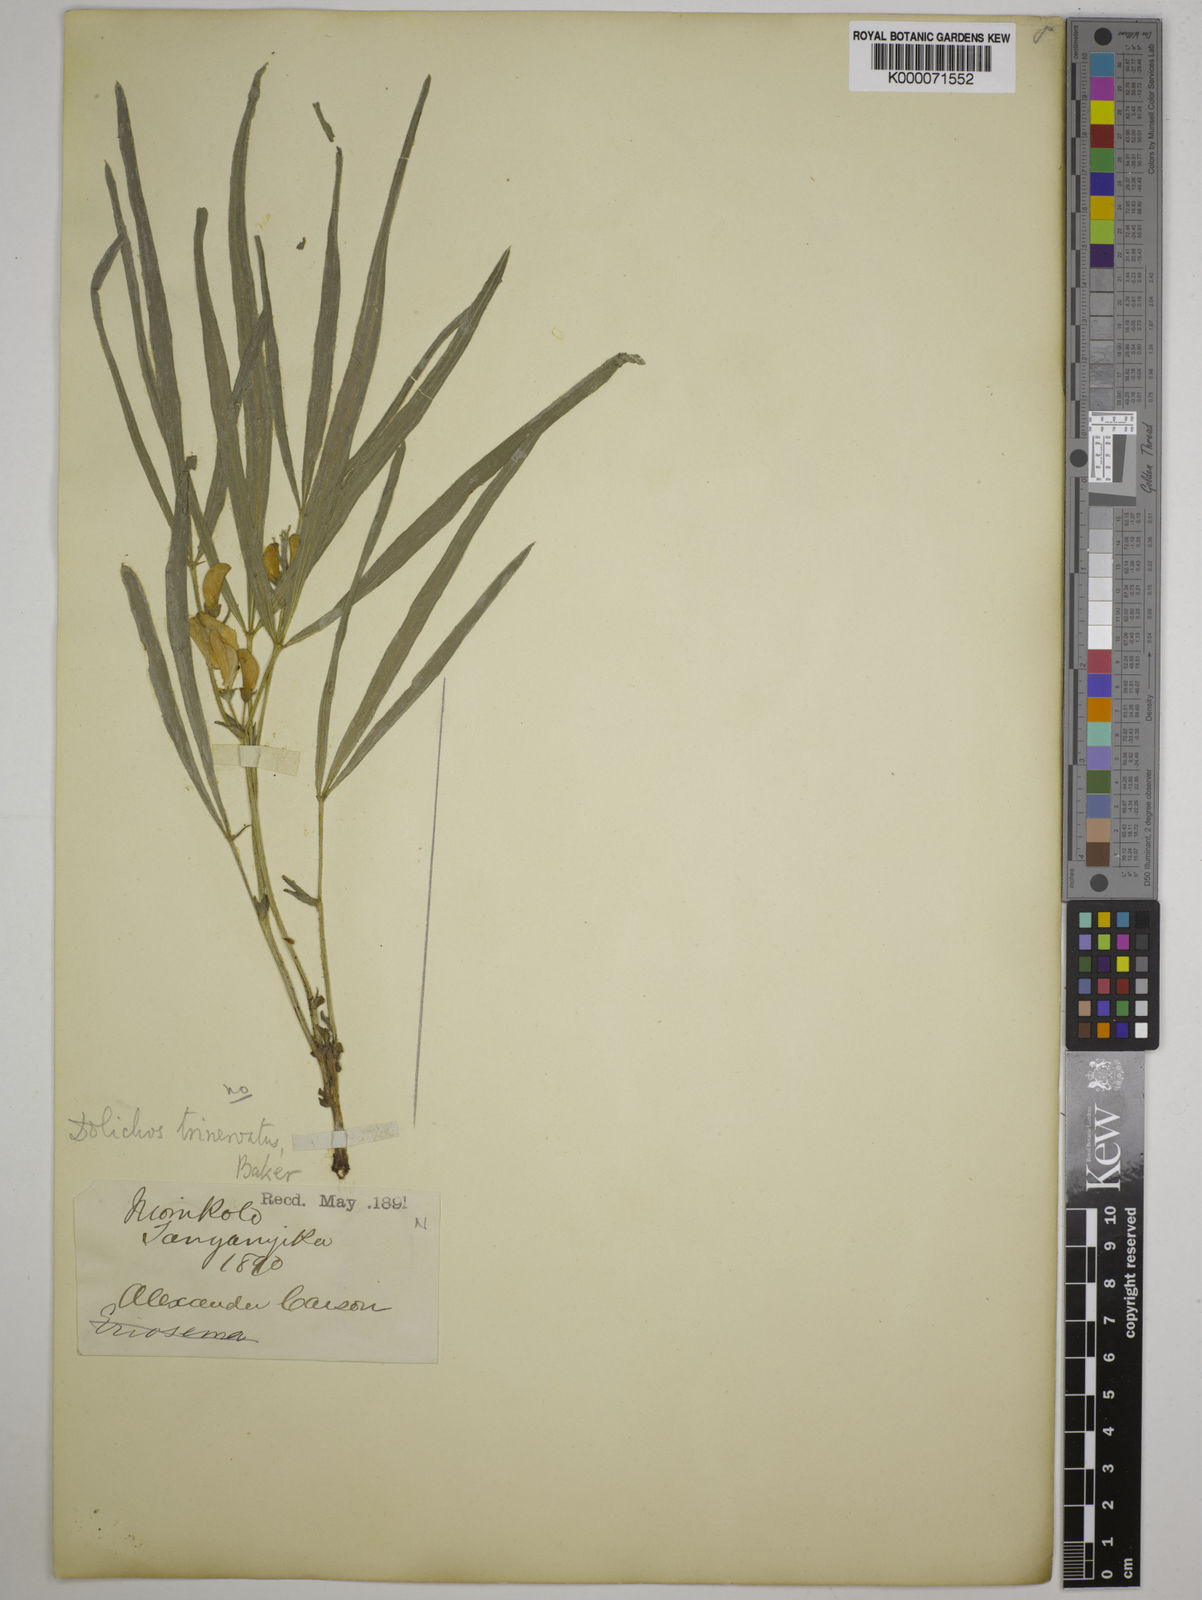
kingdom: Plantae
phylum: Tracheophyta
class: Magnoliopsida
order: Fabales
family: Fabaceae
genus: Dolichos
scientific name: Dolichos petiolatus
